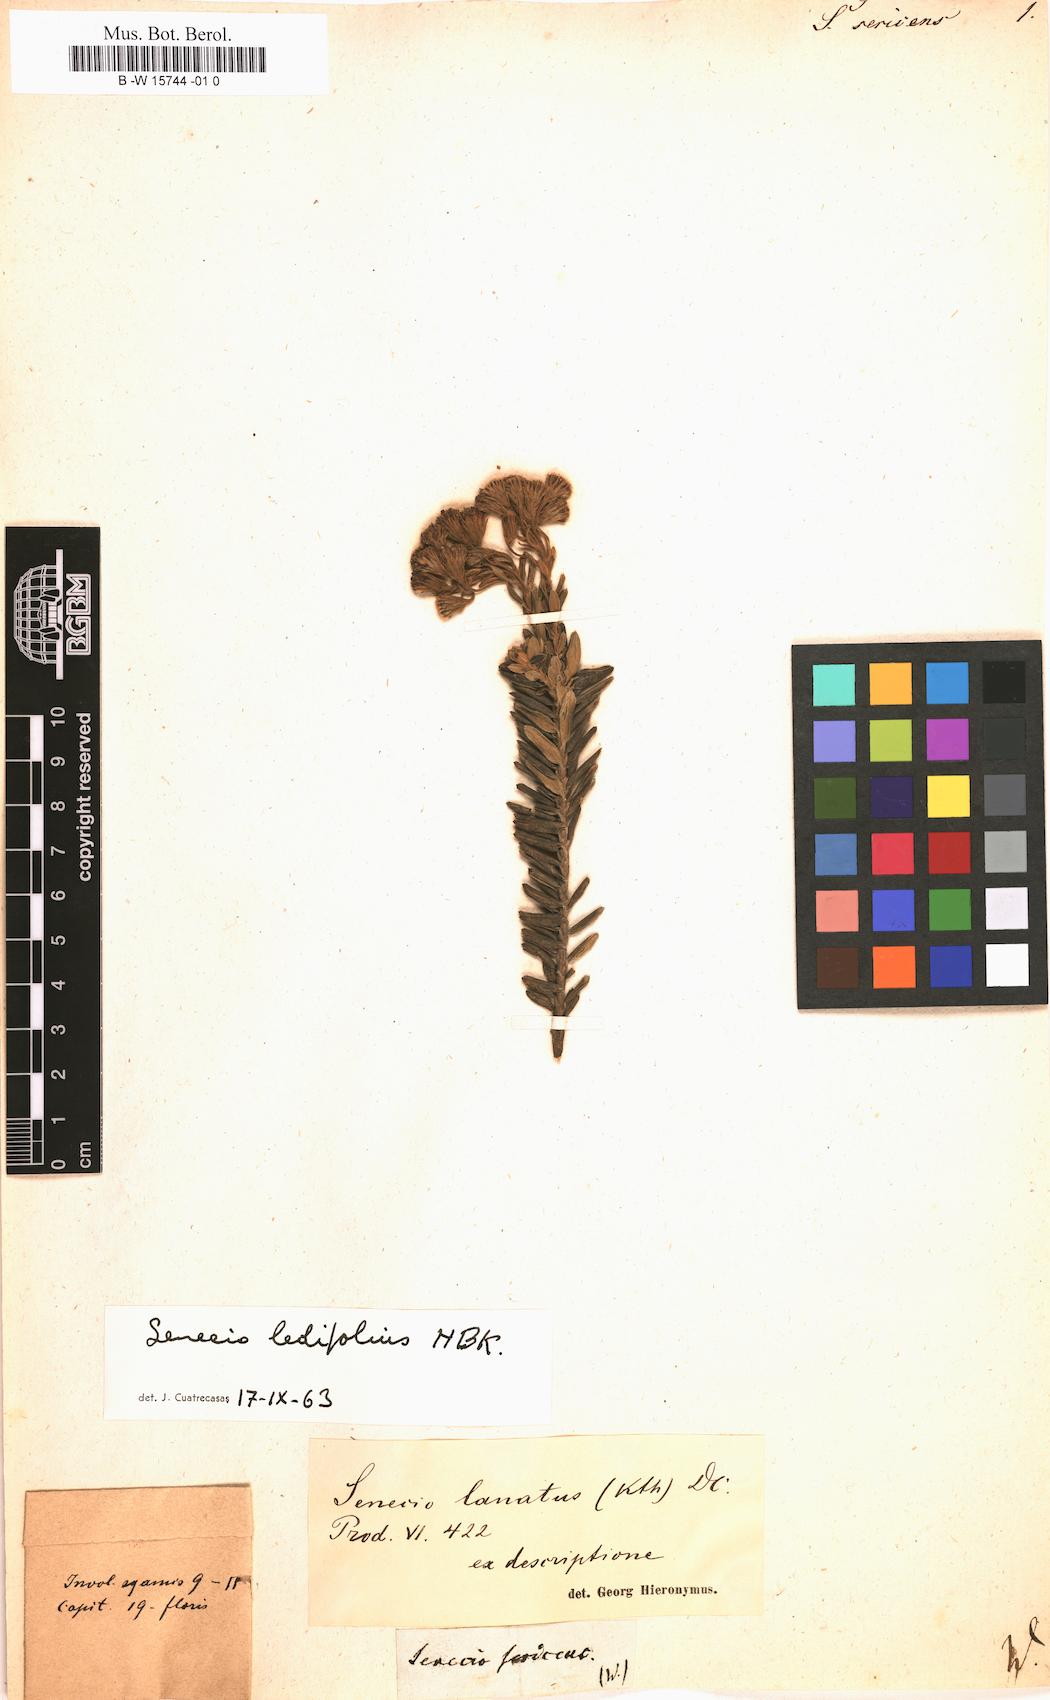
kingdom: Plantae
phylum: Tracheophyta
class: Magnoliopsida
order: Asterales
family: Asteraceae
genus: Senecio
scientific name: Senecio
